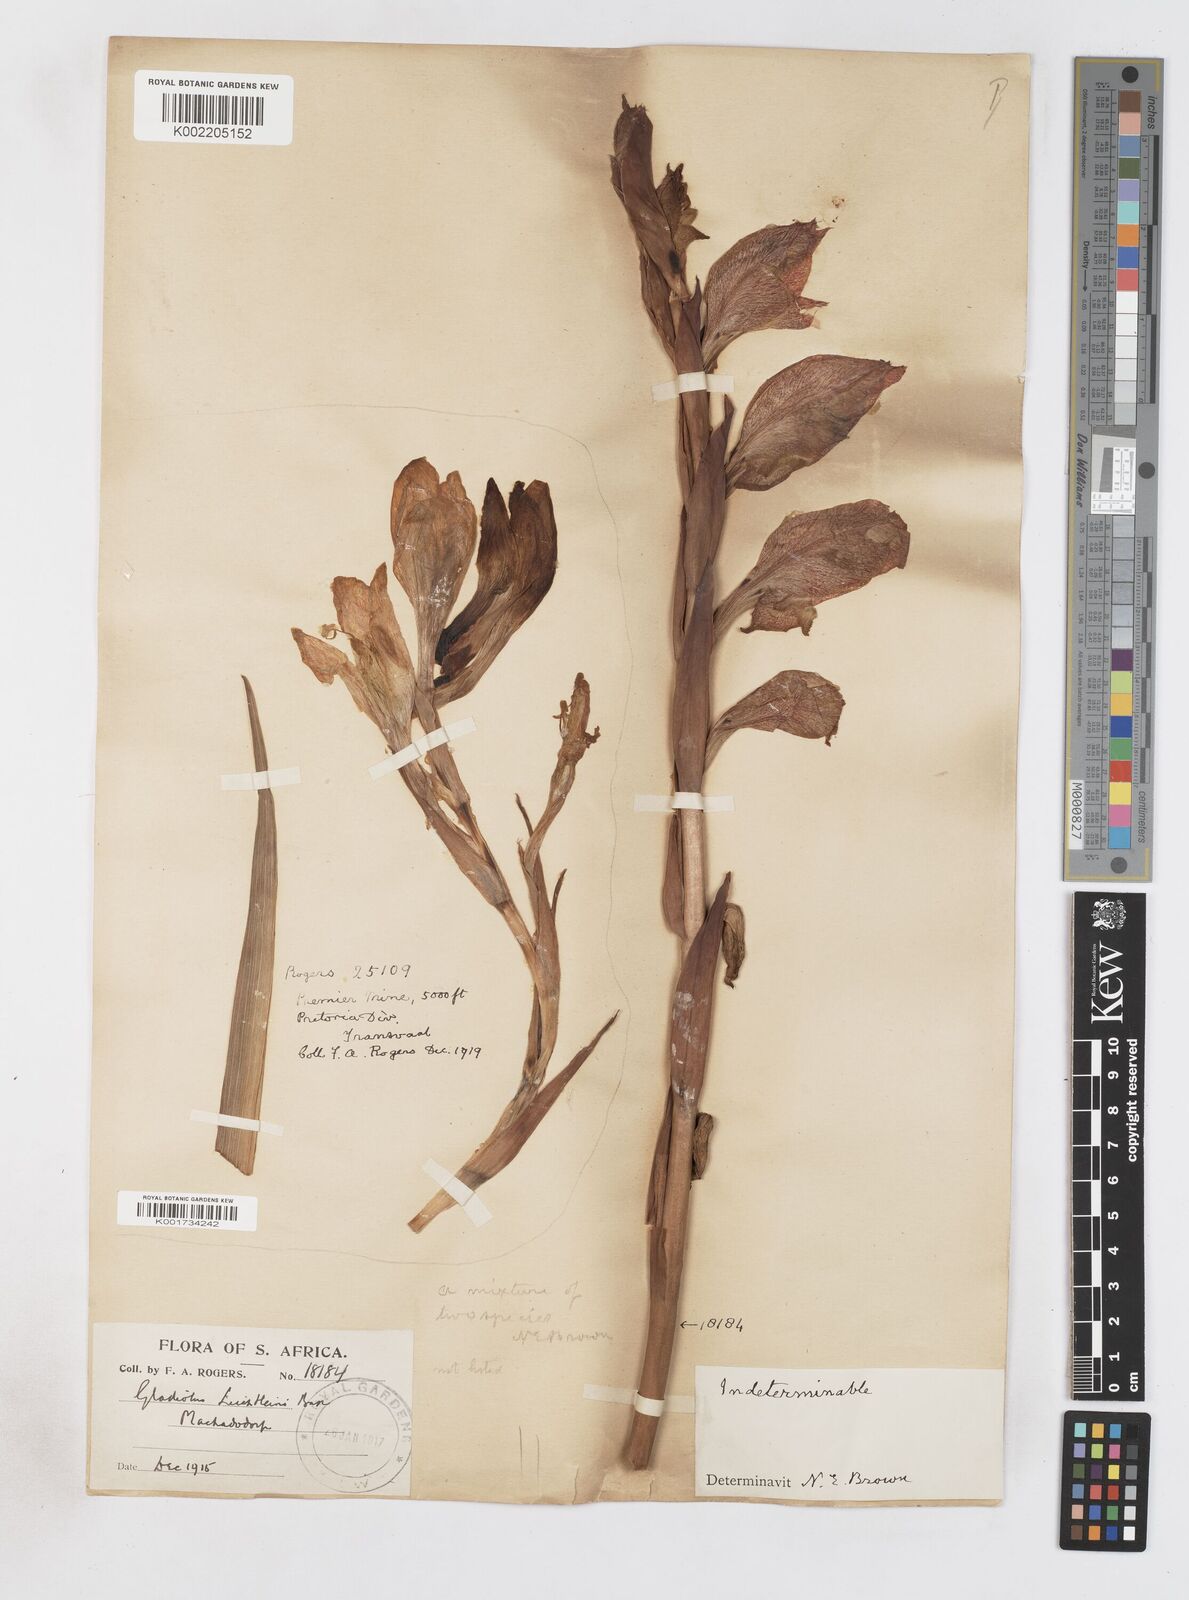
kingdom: Plantae
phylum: Tracheophyta
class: Liliopsida
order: Asparagales
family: Iridaceae
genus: Gladiolus
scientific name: Gladiolus dalenii
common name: Cornflag
